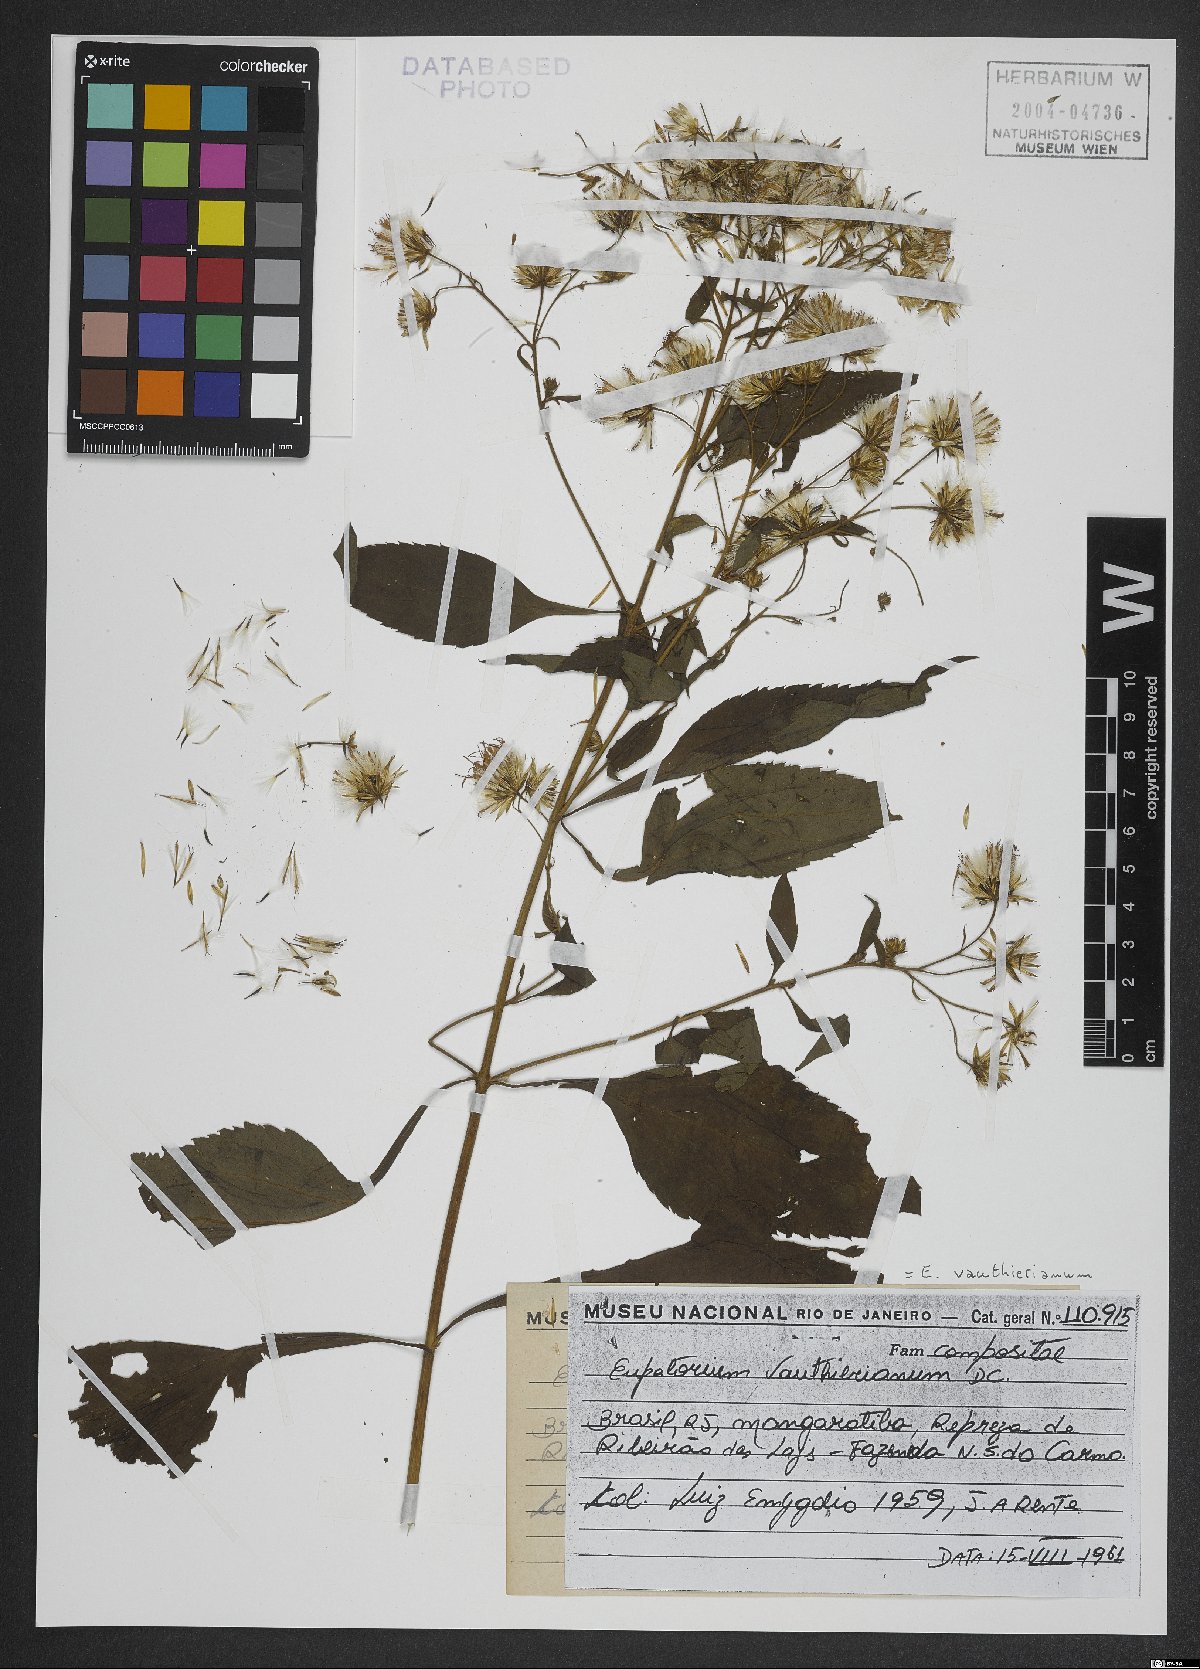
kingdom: Plantae
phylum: Tracheophyta
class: Magnoliopsida
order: Asterales
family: Asteraceae
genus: Heterocondylus
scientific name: Heterocondylus alatus
